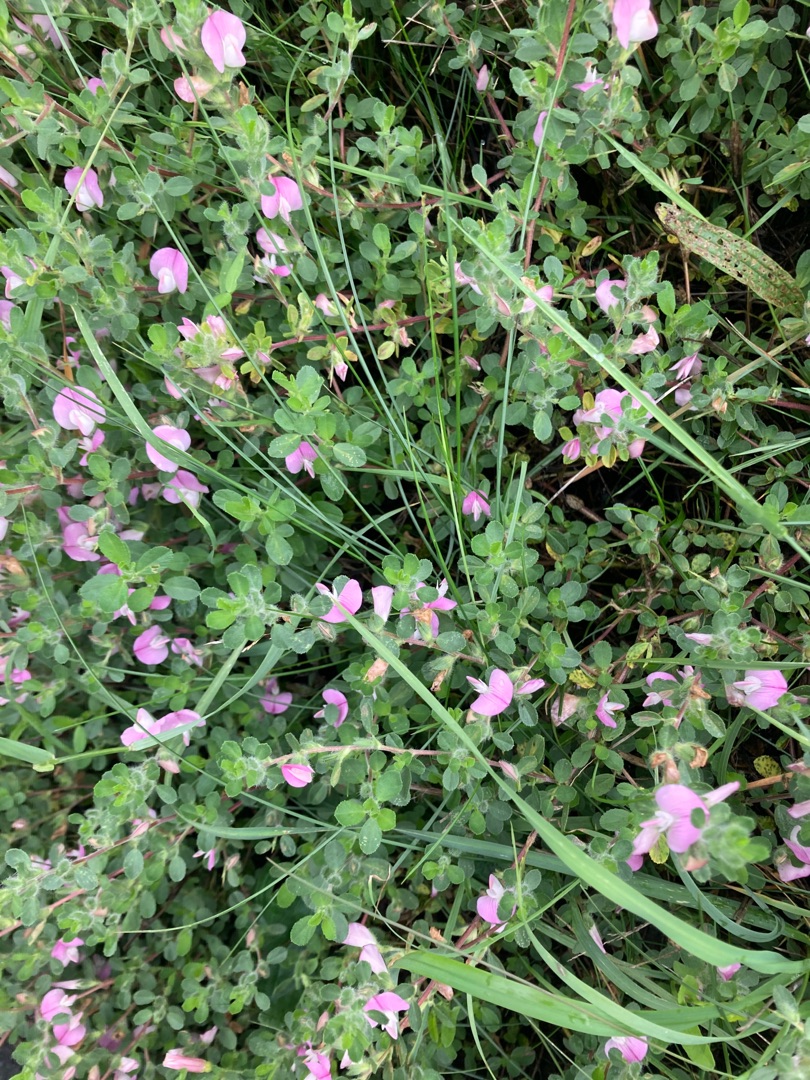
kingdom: Plantae
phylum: Tracheophyta
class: Magnoliopsida
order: Fabales
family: Fabaceae
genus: Ononis
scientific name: Ononis spinosa
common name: Mark-krageklo
